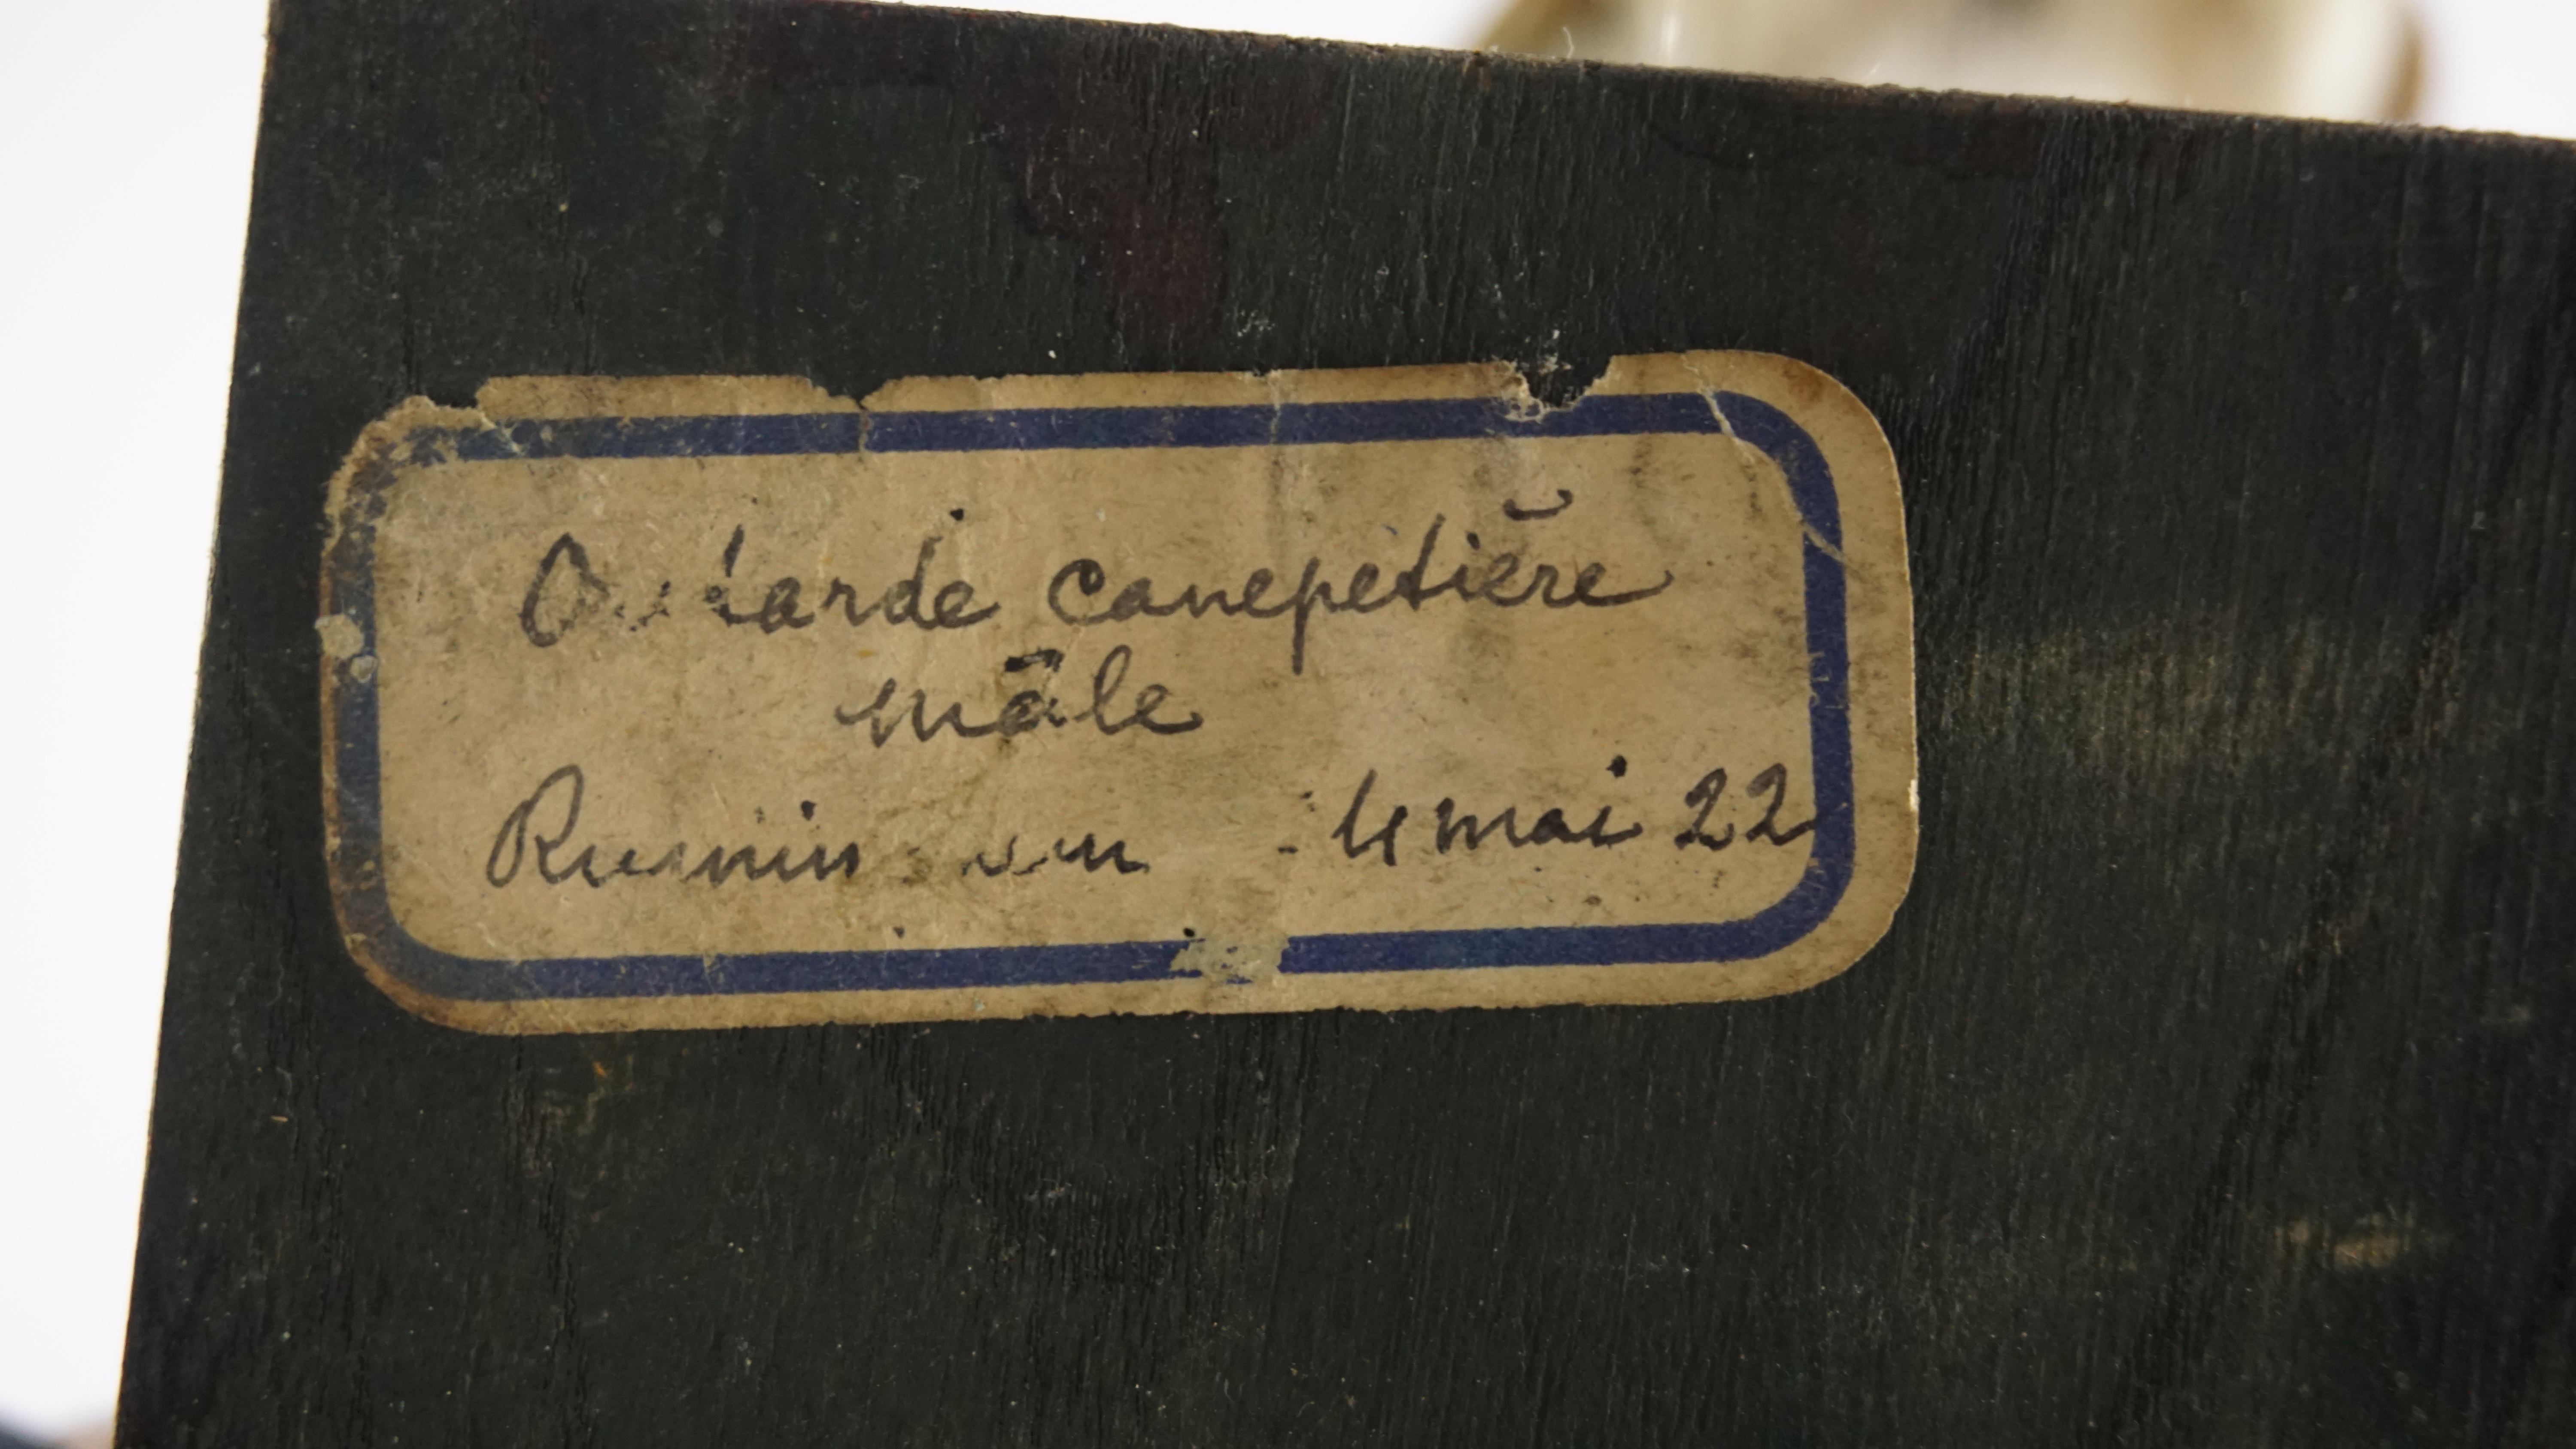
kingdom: Animalia
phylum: Chordata
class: Aves
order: Otidiformes
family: Otididae
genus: Tetrax
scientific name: Tetrax tetrax
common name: Little bustard
